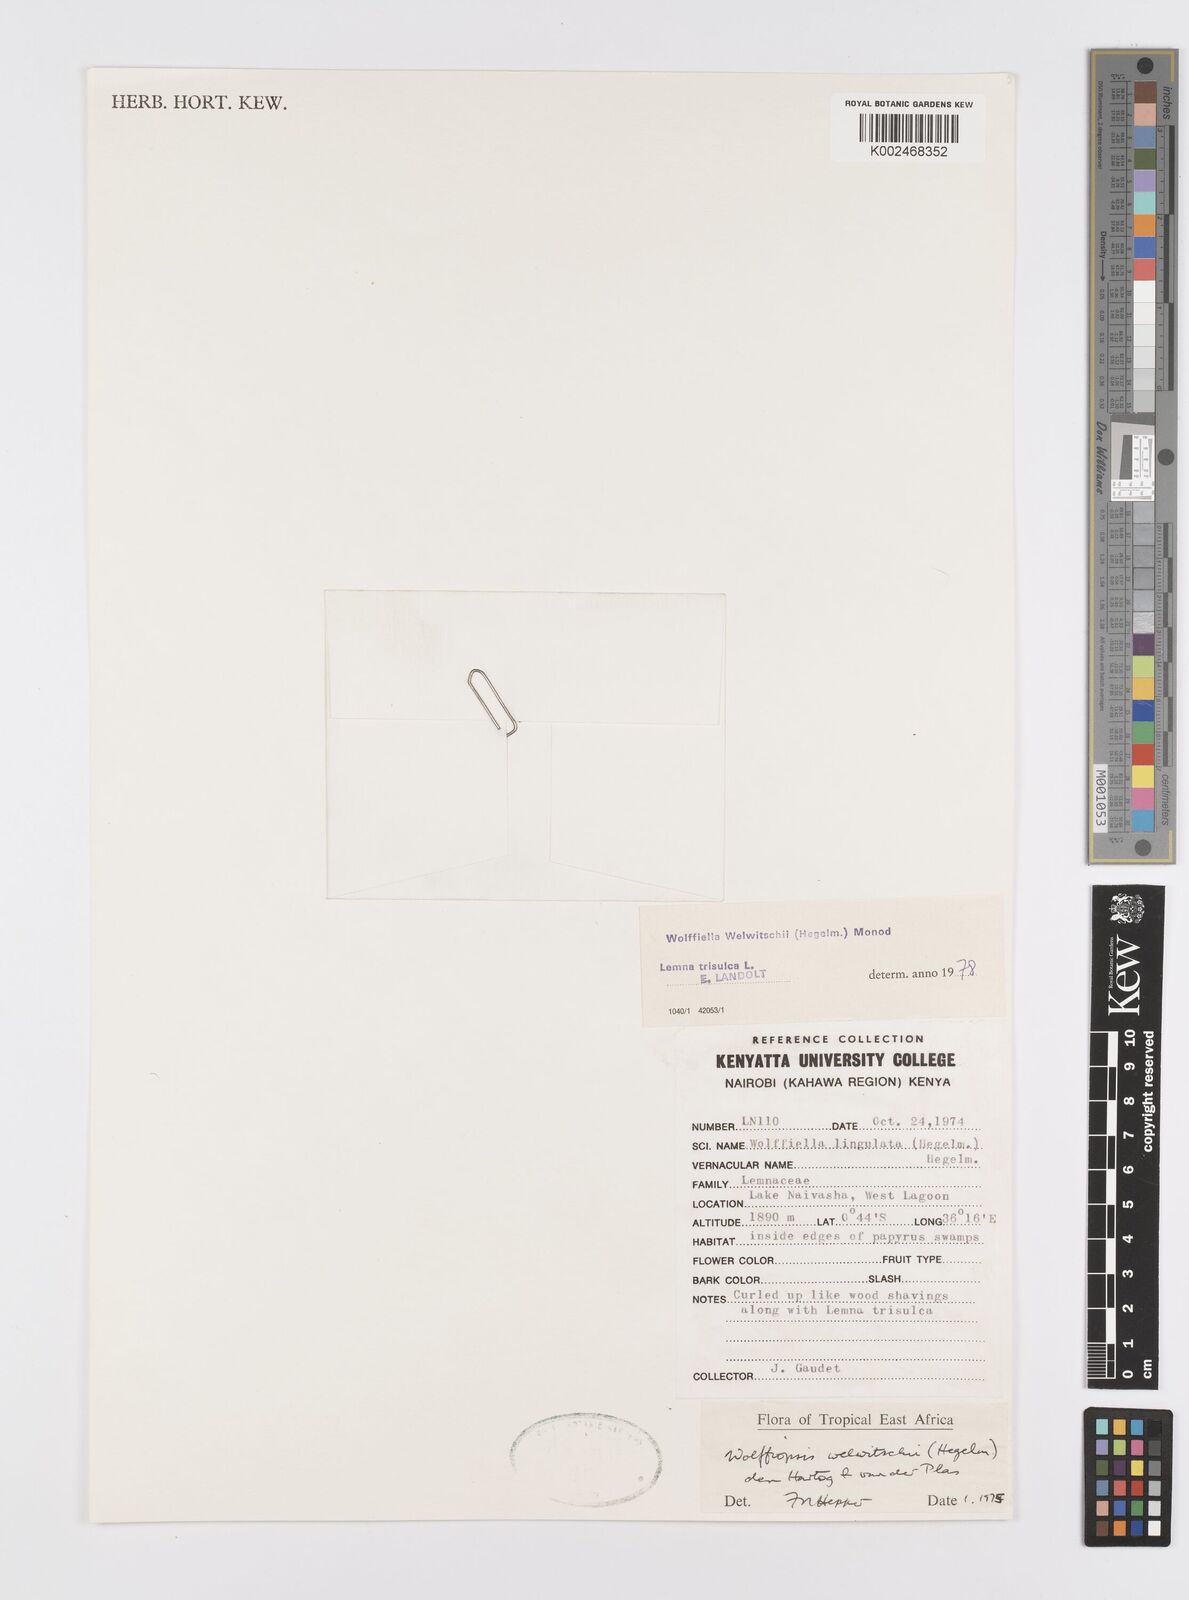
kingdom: Plantae
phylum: Tracheophyta
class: Liliopsida
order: Alismatales
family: Araceae
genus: Wolffiella
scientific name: Wolffiella welwitschii
